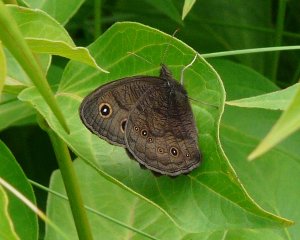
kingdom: Animalia
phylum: Arthropoda
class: Insecta
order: Lepidoptera
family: Nymphalidae
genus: Cercyonis
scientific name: Cercyonis pegala
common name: Common Wood-Nymph
